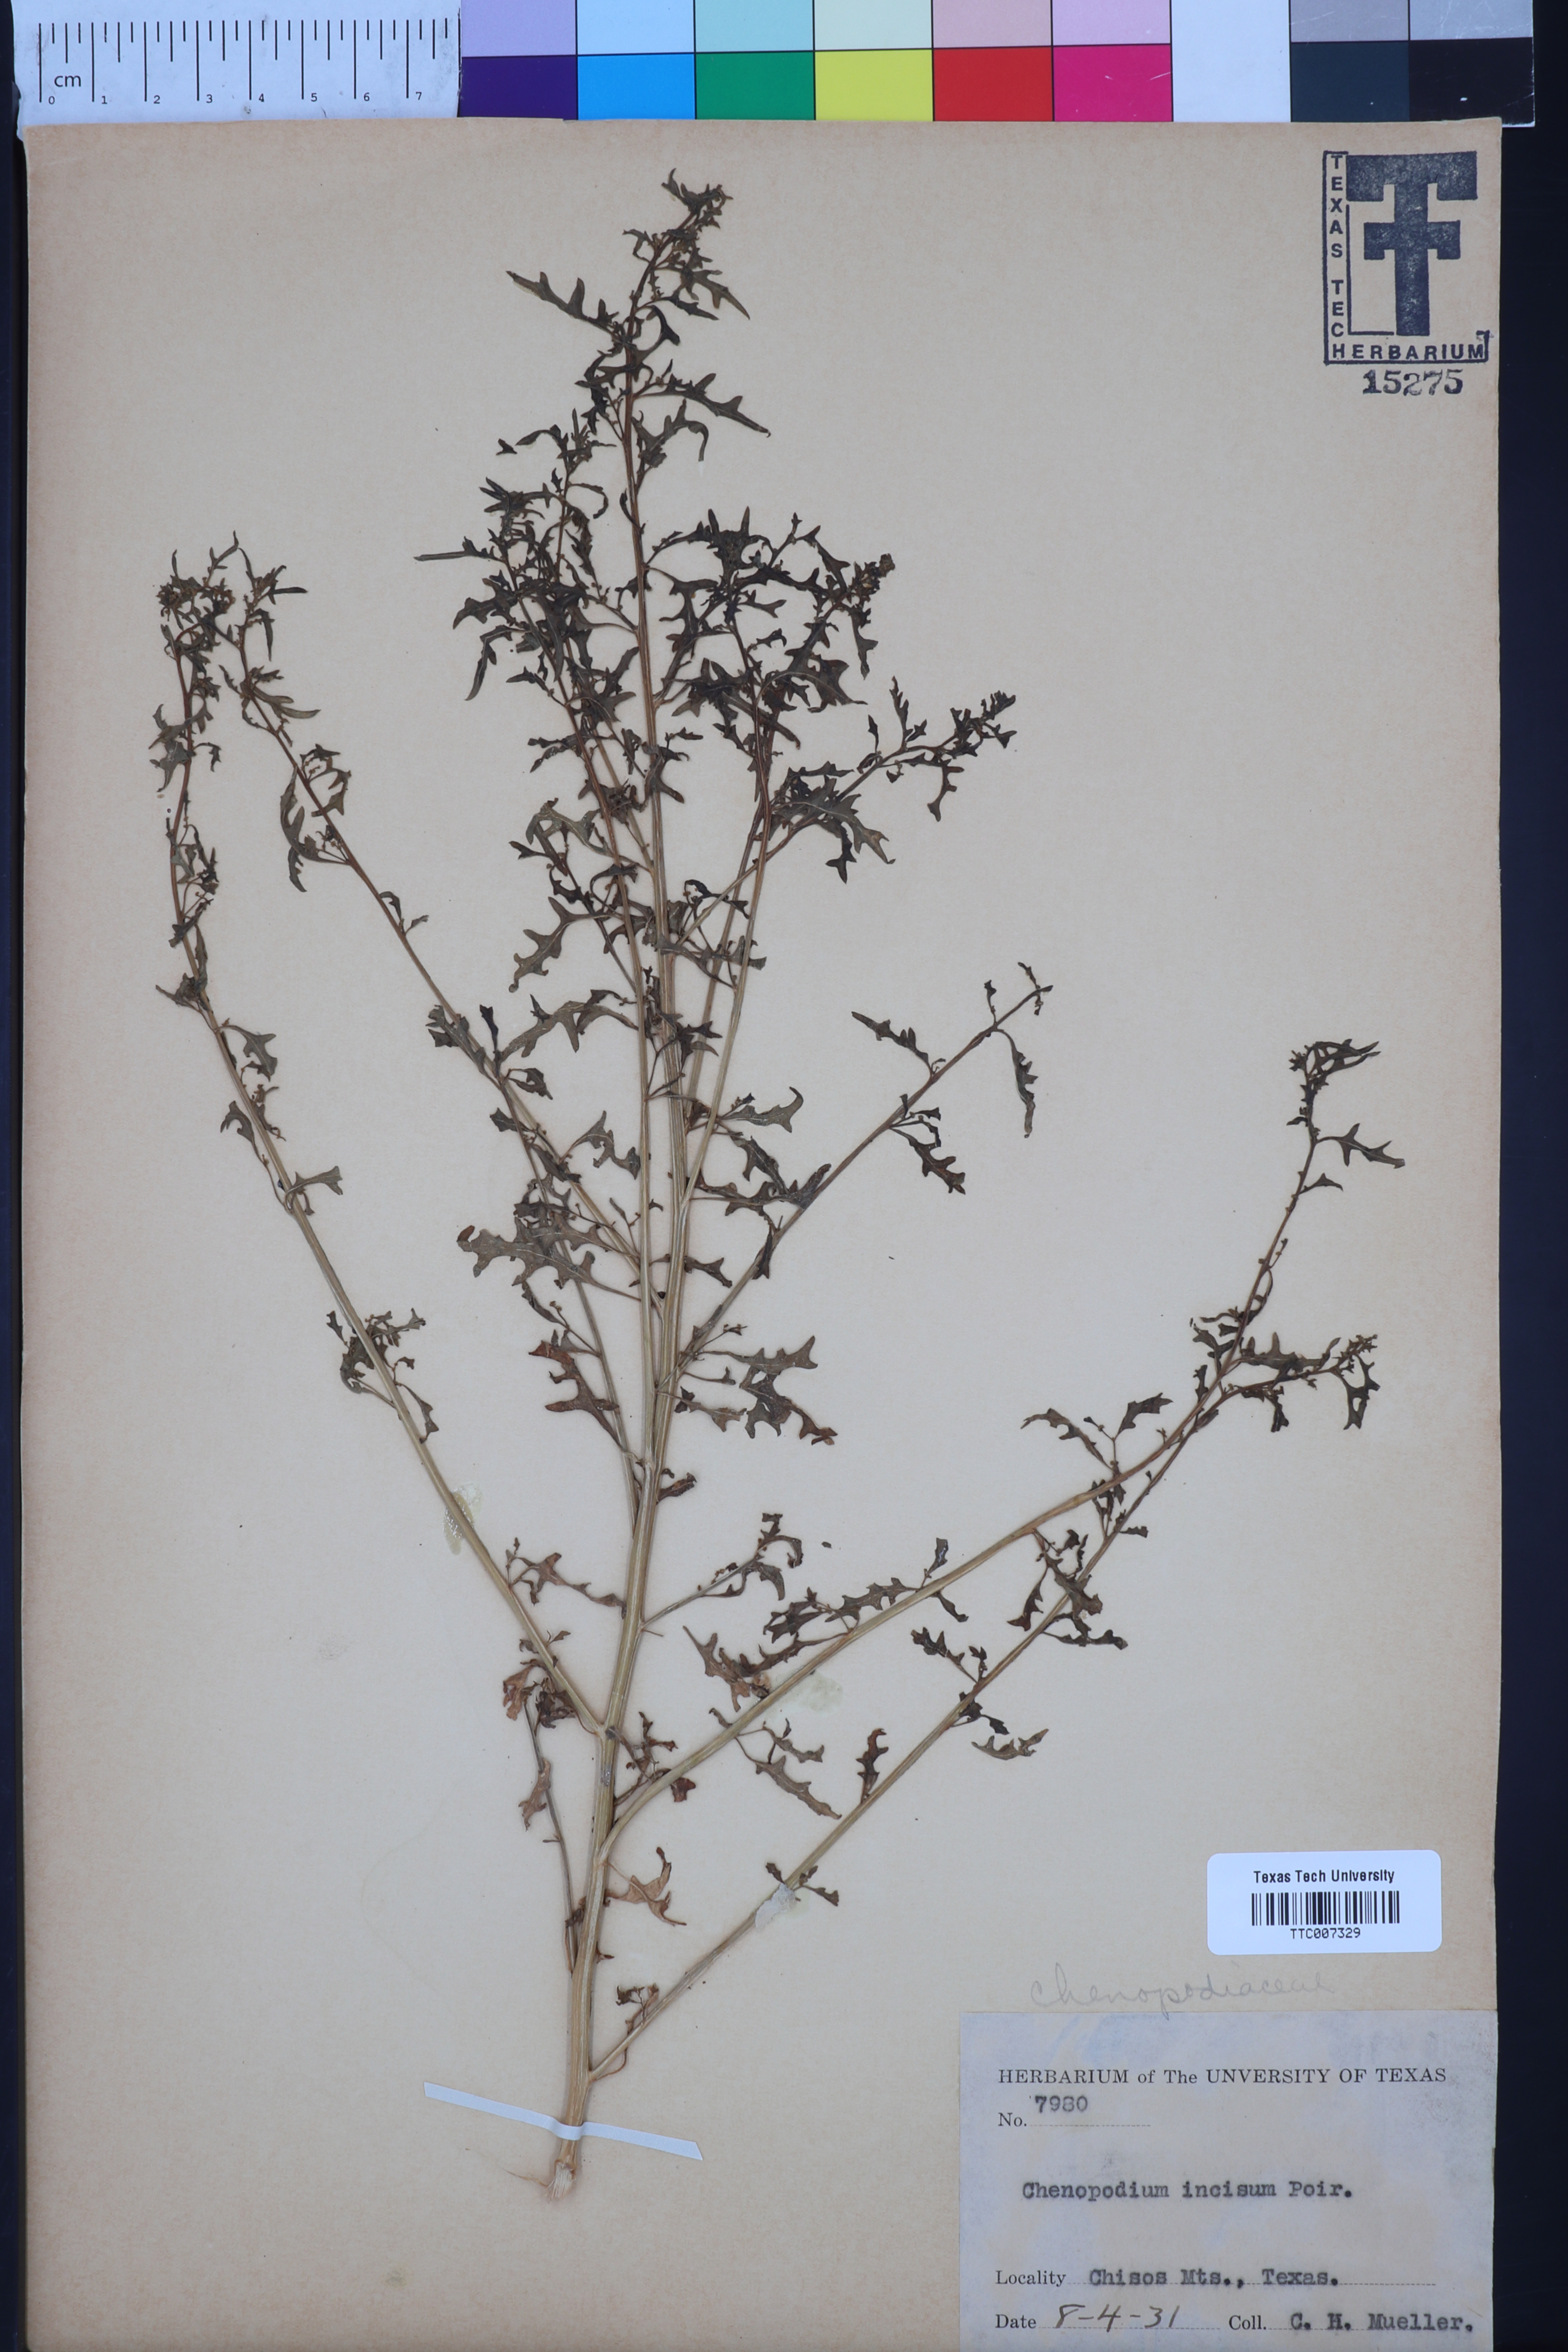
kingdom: Plantae
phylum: Tracheophyta
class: Magnoliopsida
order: Caryophyllales
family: Amaranthaceae
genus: Chenopodium
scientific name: Chenopodium incanum
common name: Hoary goosefoot
